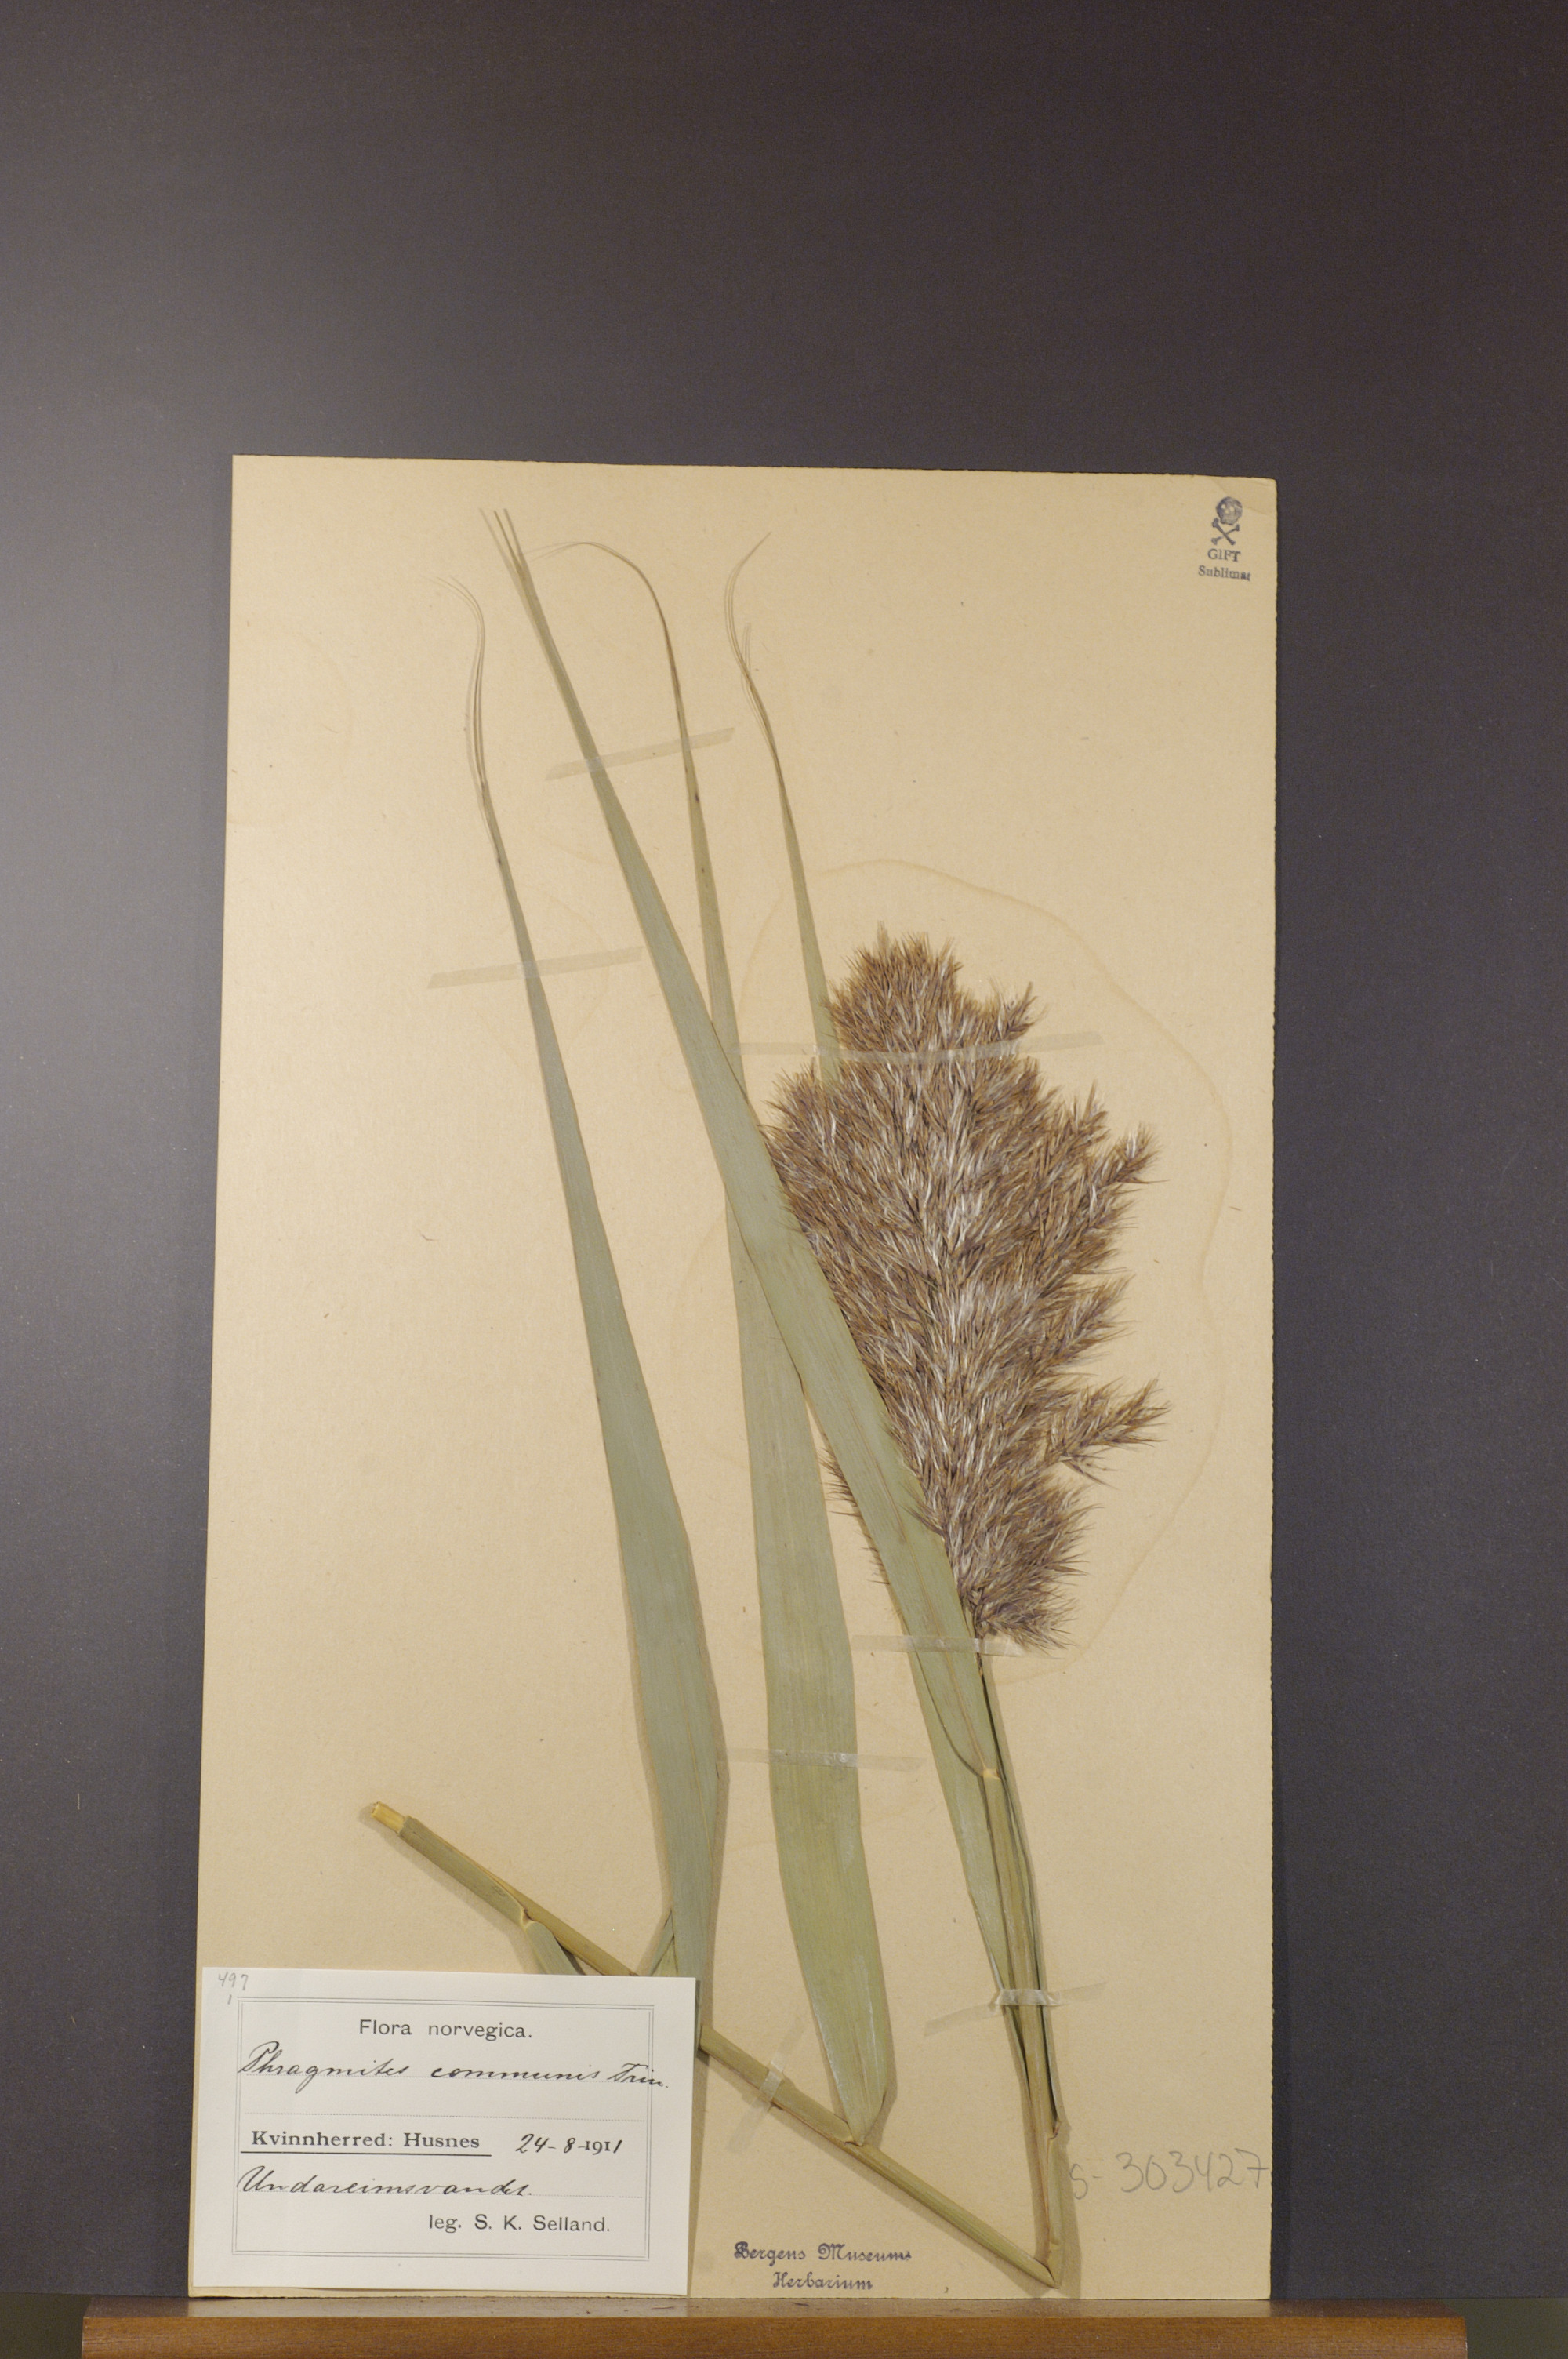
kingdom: Plantae
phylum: Tracheophyta
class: Liliopsida
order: Poales
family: Poaceae
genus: Phragmites
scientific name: Phragmites australis
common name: Common reed
